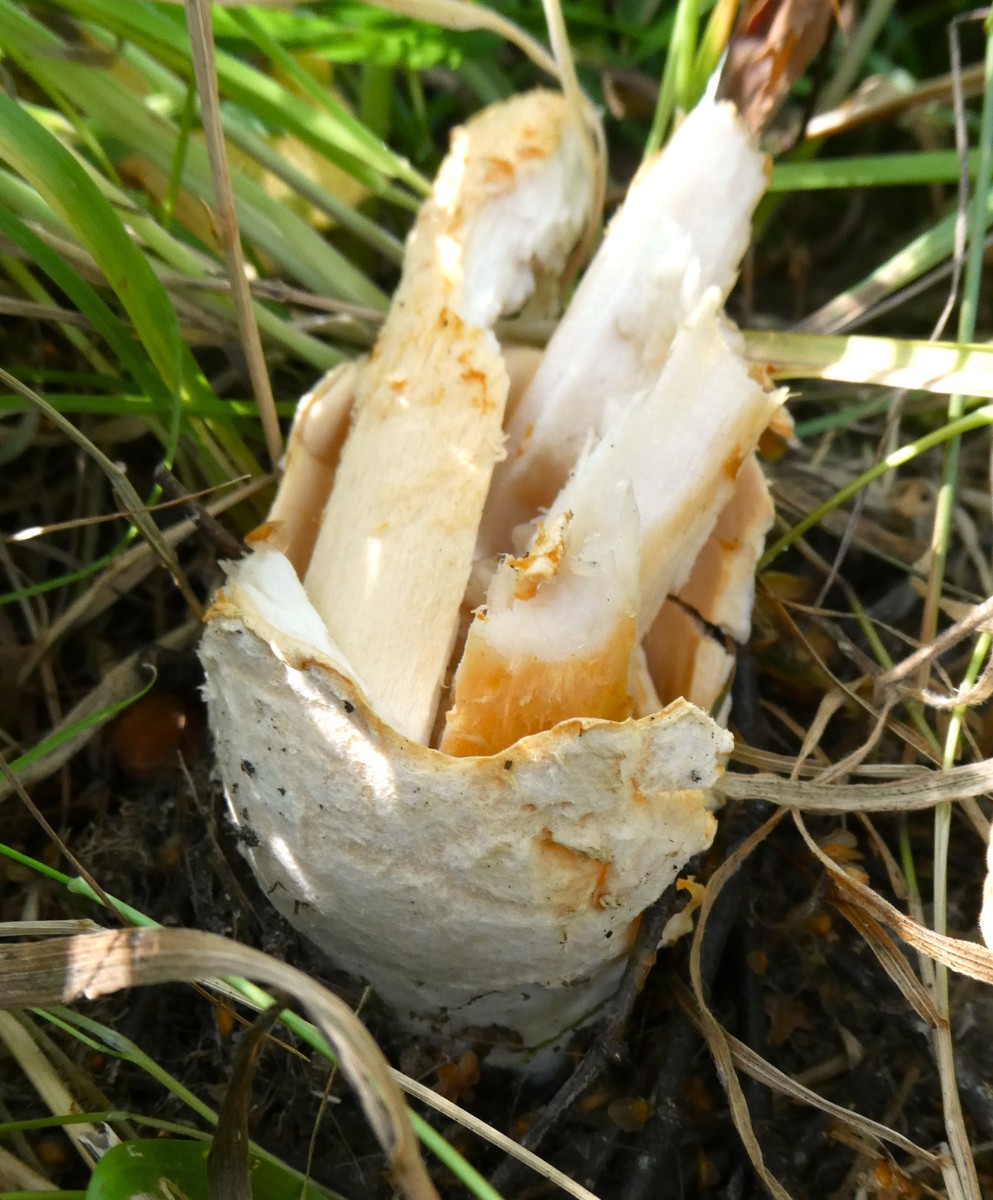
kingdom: Fungi
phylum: Basidiomycota
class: Agaricomycetes
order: Agaricales
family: Amanitaceae
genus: Amanita
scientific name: Amanita crocea
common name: gylden kam-fluesvamp
